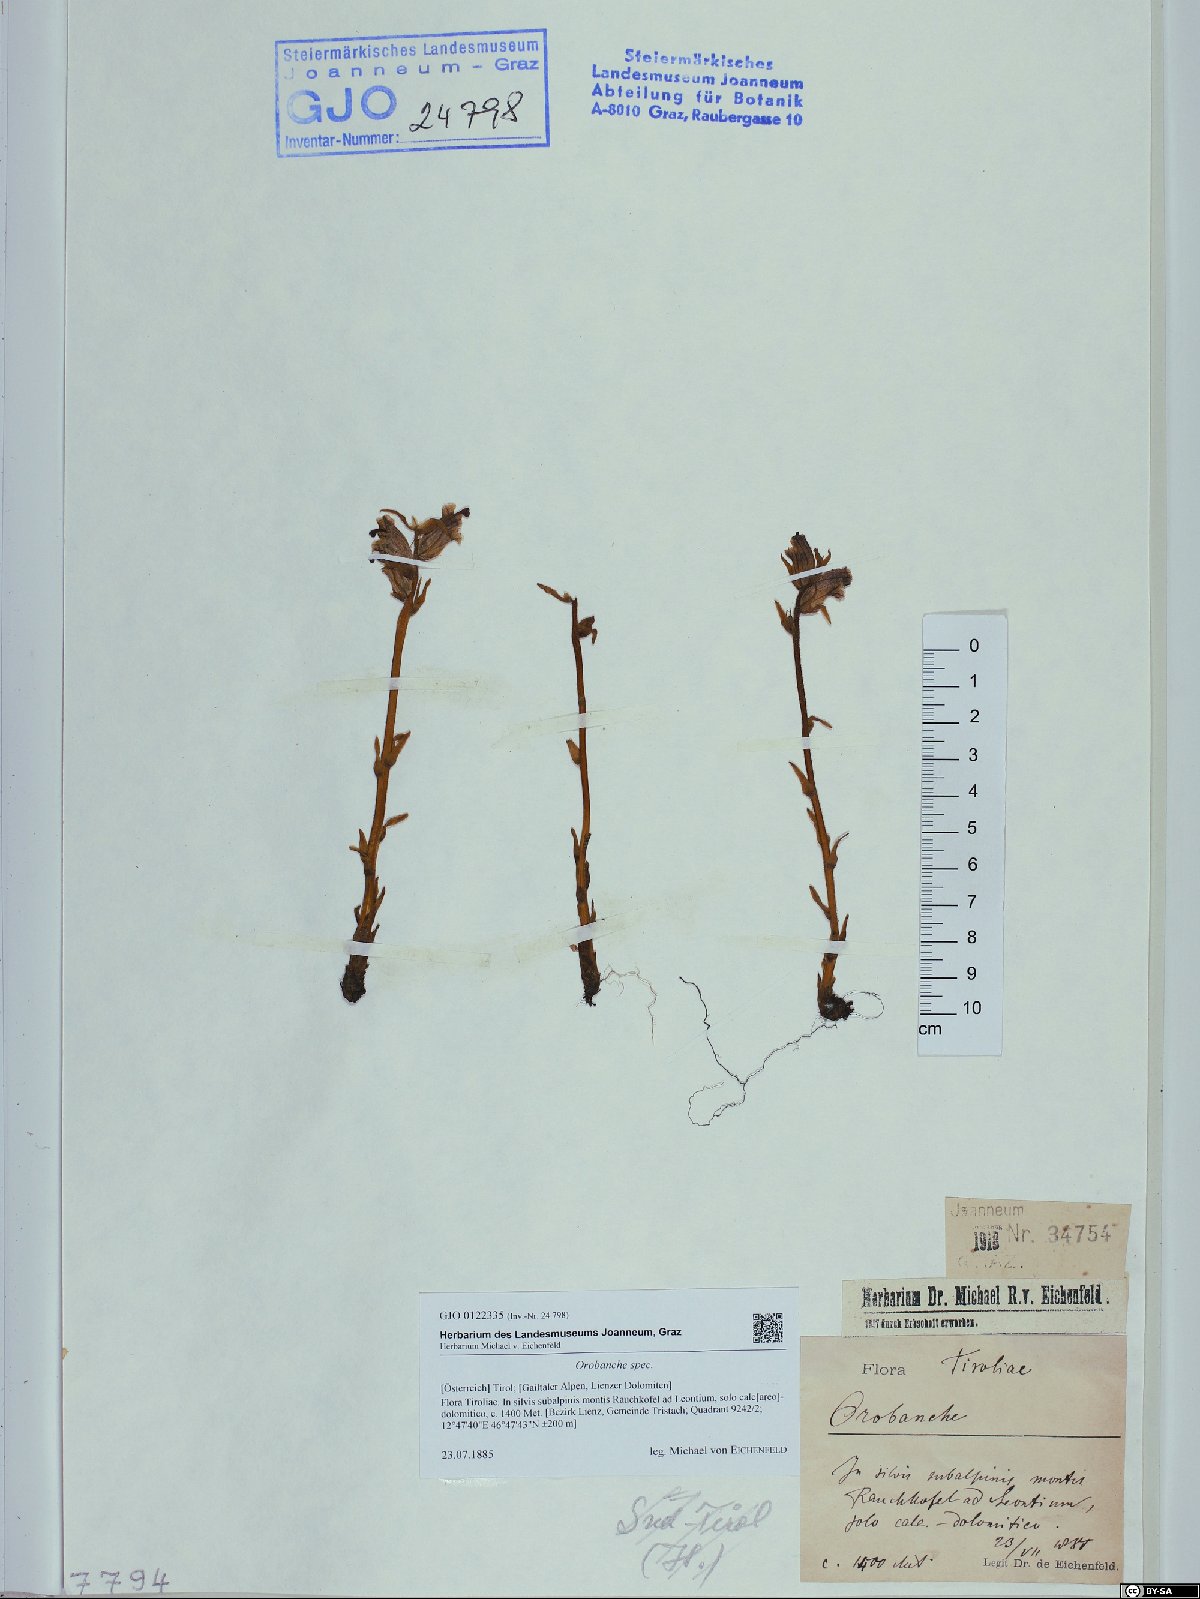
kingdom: Plantae
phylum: Tracheophyta
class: Magnoliopsida
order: Lamiales
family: Orobanchaceae
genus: Orobanche
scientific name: Orobanche
